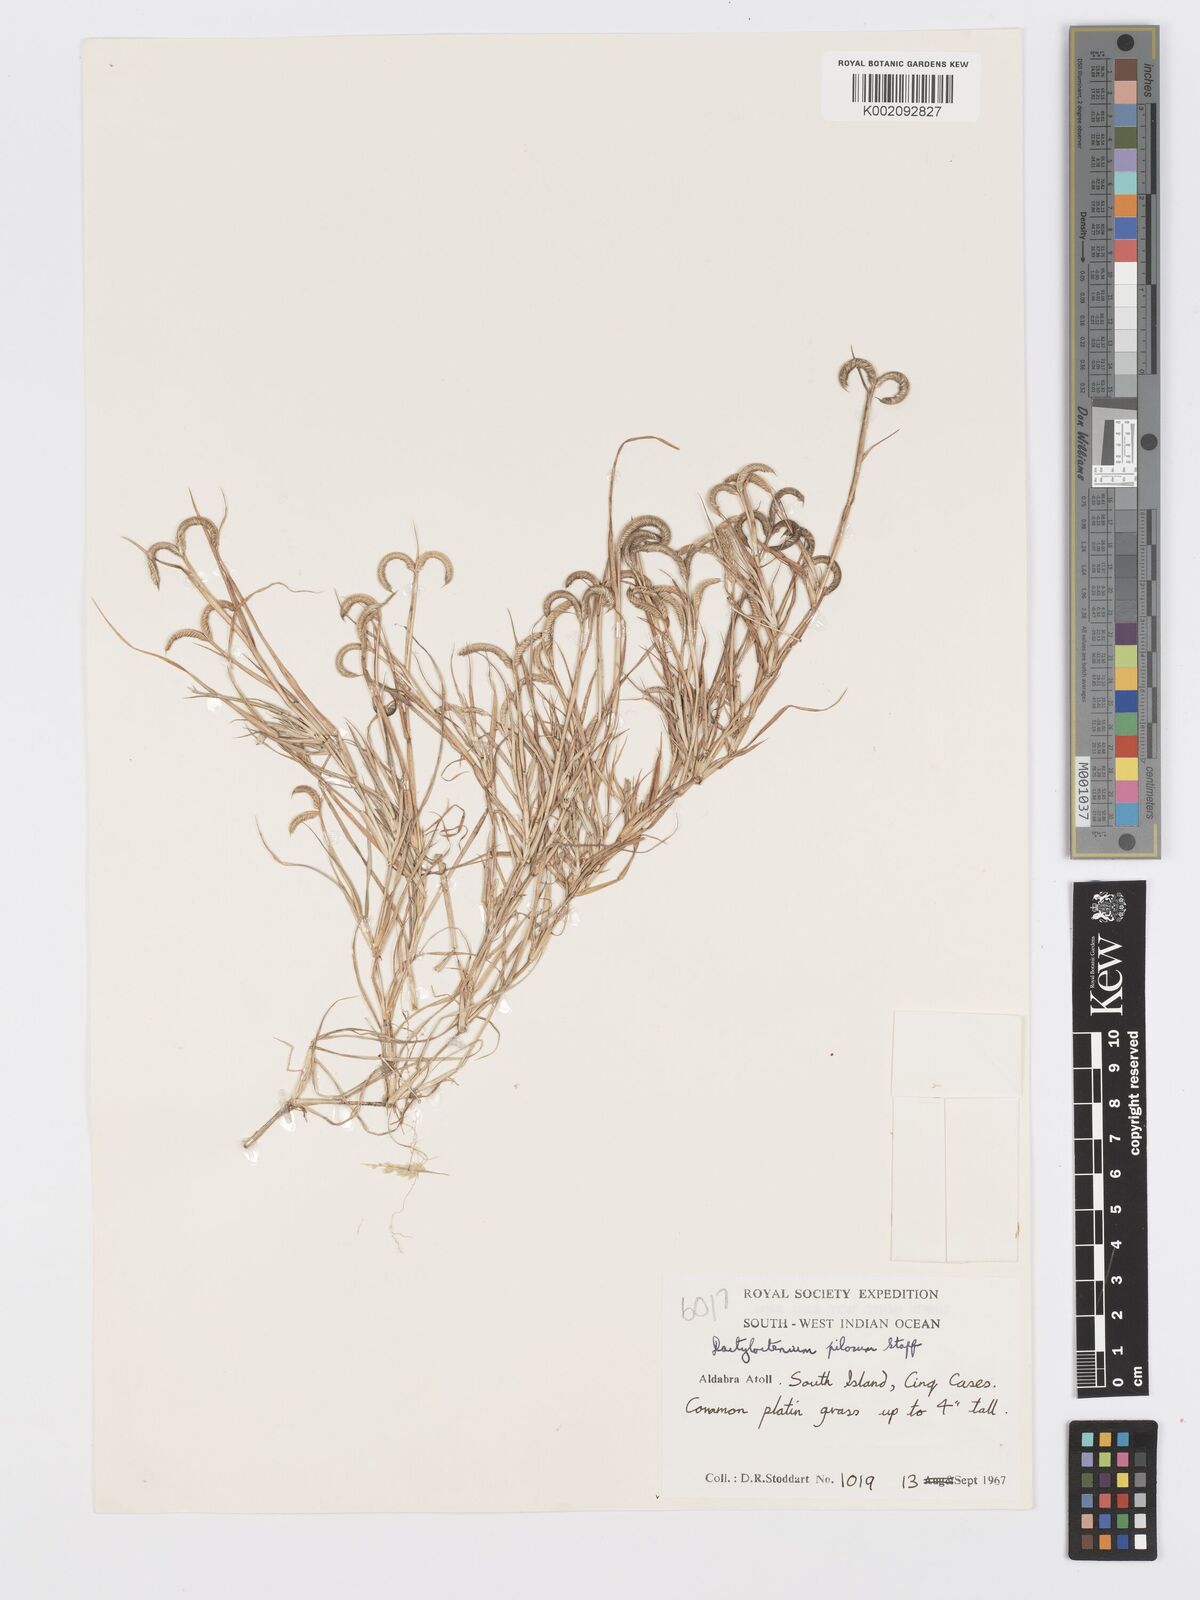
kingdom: Plantae
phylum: Tracheophyta
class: Liliopsida
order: Poales
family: Poaceae
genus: Dactyloctenium
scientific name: Dactyloctenium pilosum
